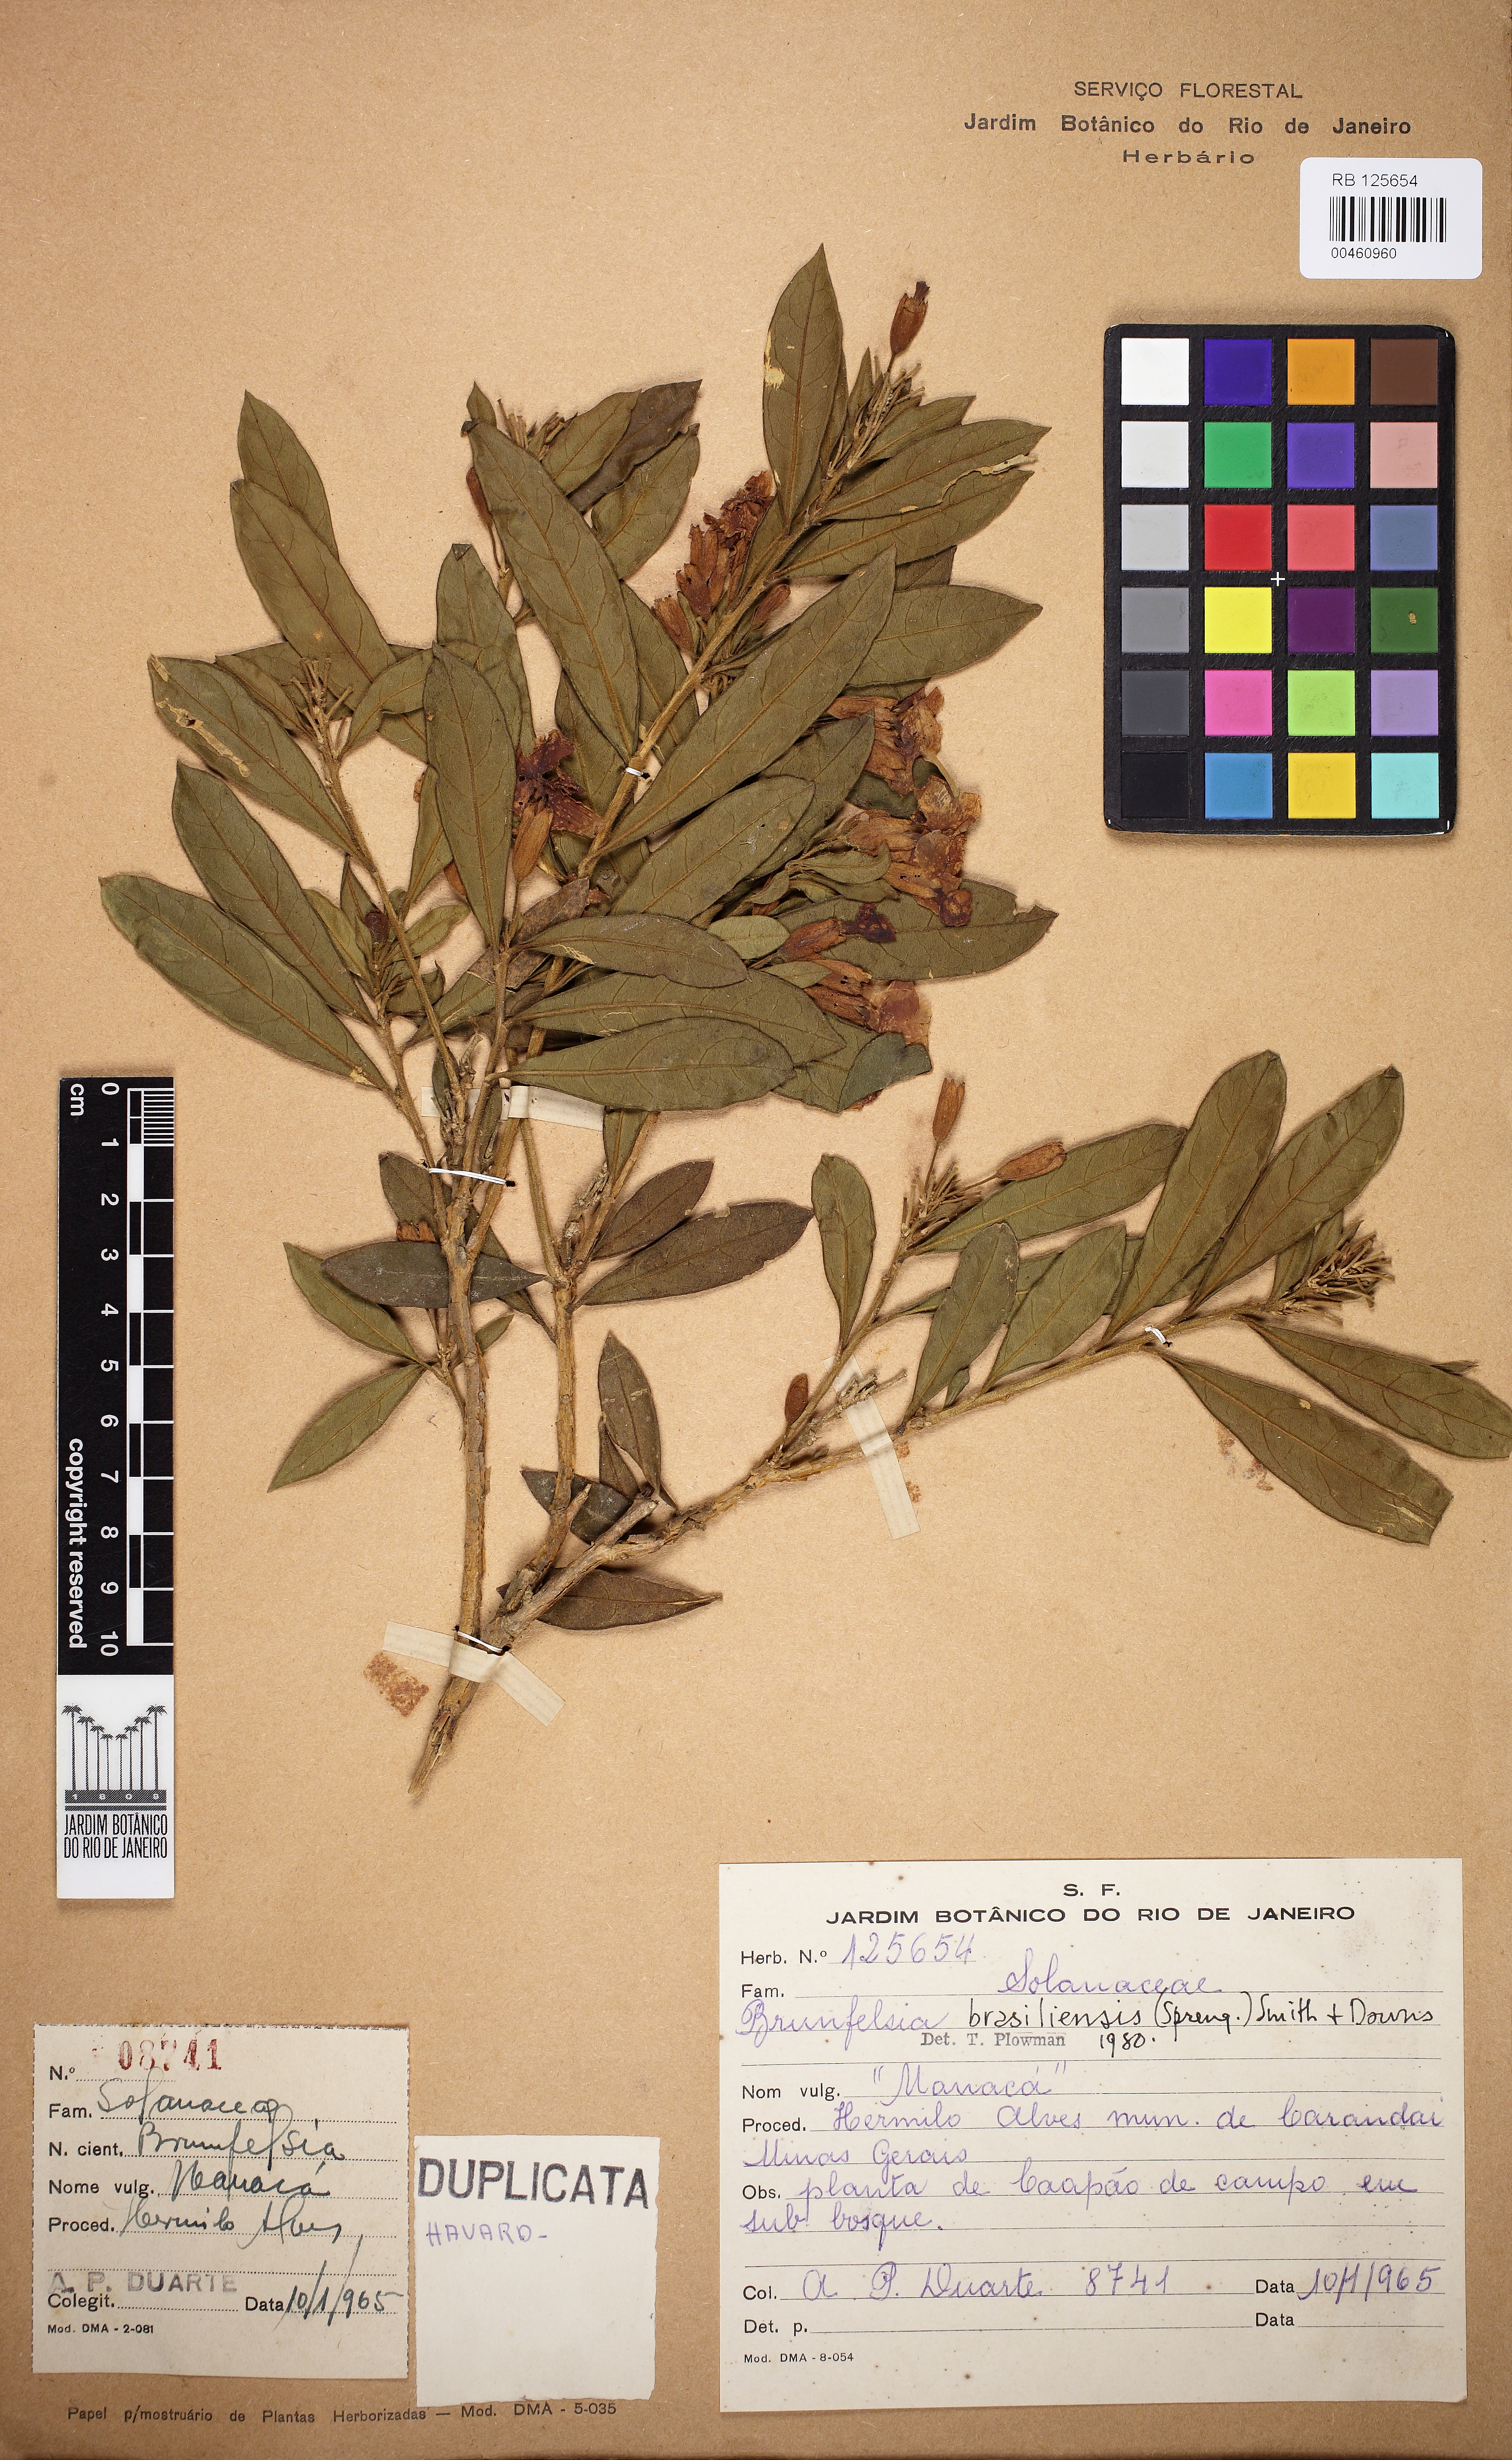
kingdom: Plantae
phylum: Tracheophyta
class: Magnoliopsida
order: Solanales
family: Solanaceae
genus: Brunfelsia
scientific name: Brunfelsia brasiliensis
